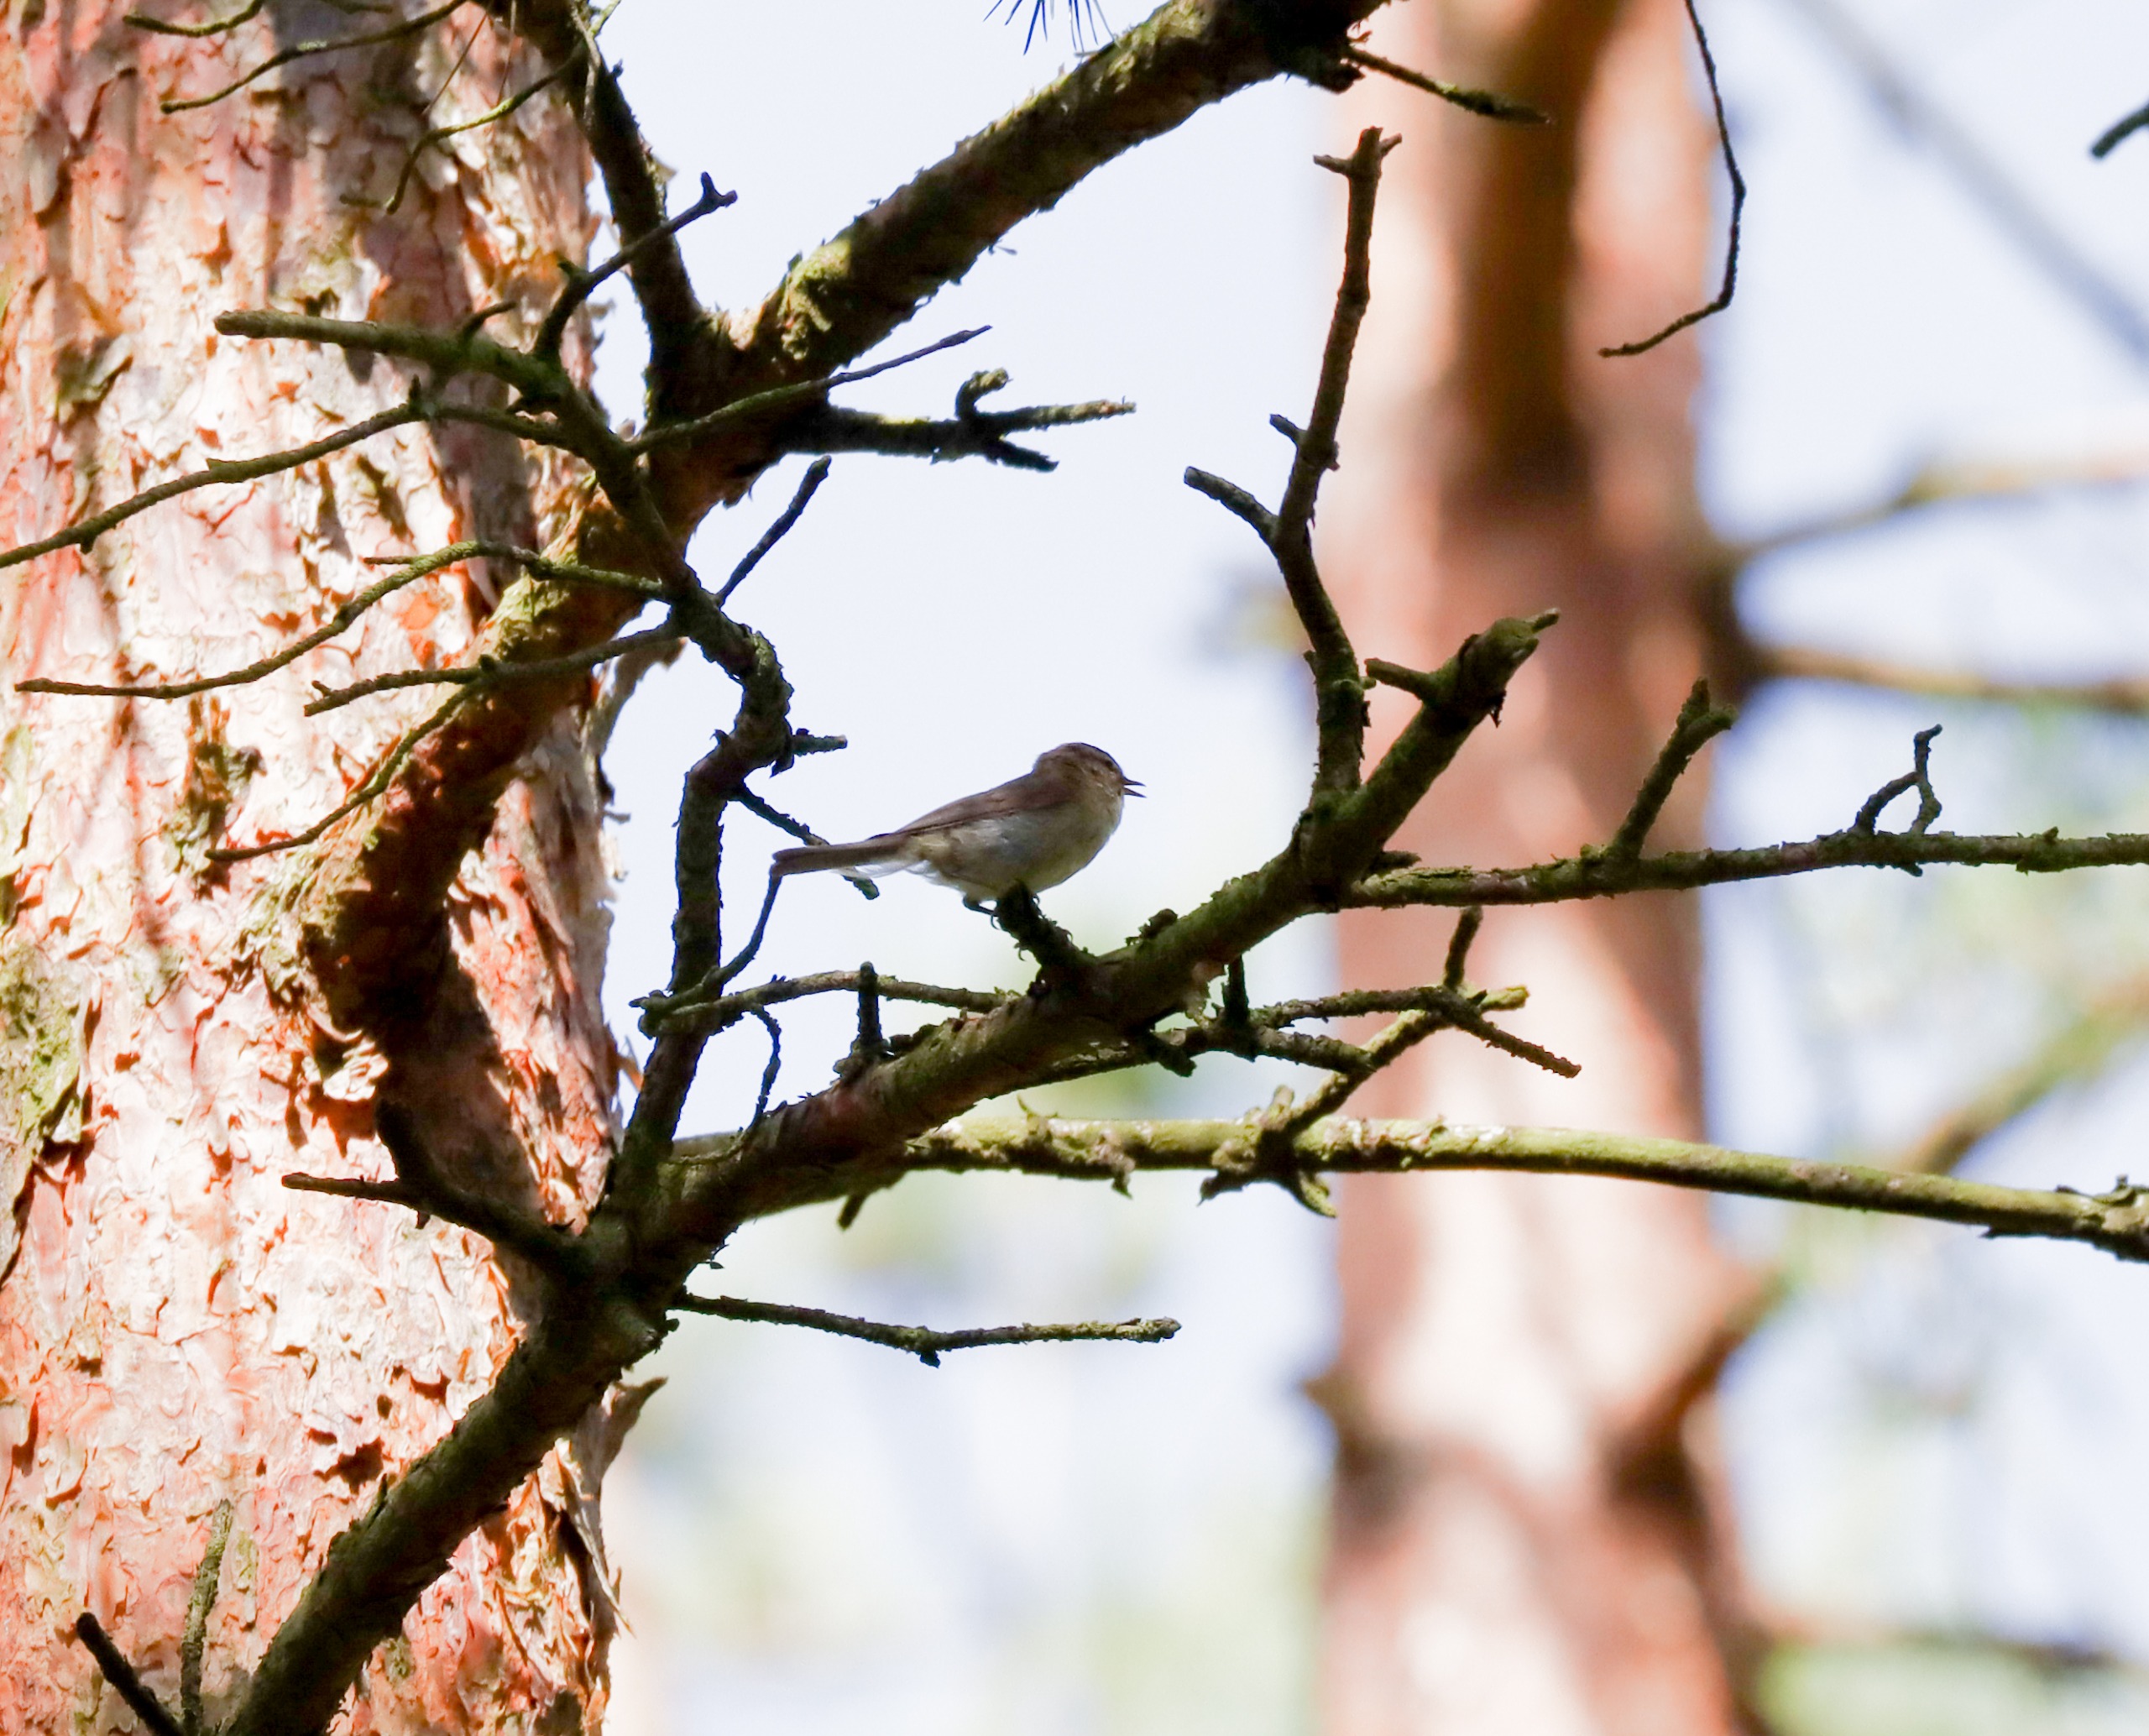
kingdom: Animalia
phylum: Chordata
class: Aves
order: Passeriformes
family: Phylloscopidae
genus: Phylloscopus
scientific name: Phylloscopus collybita
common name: Gransanger
